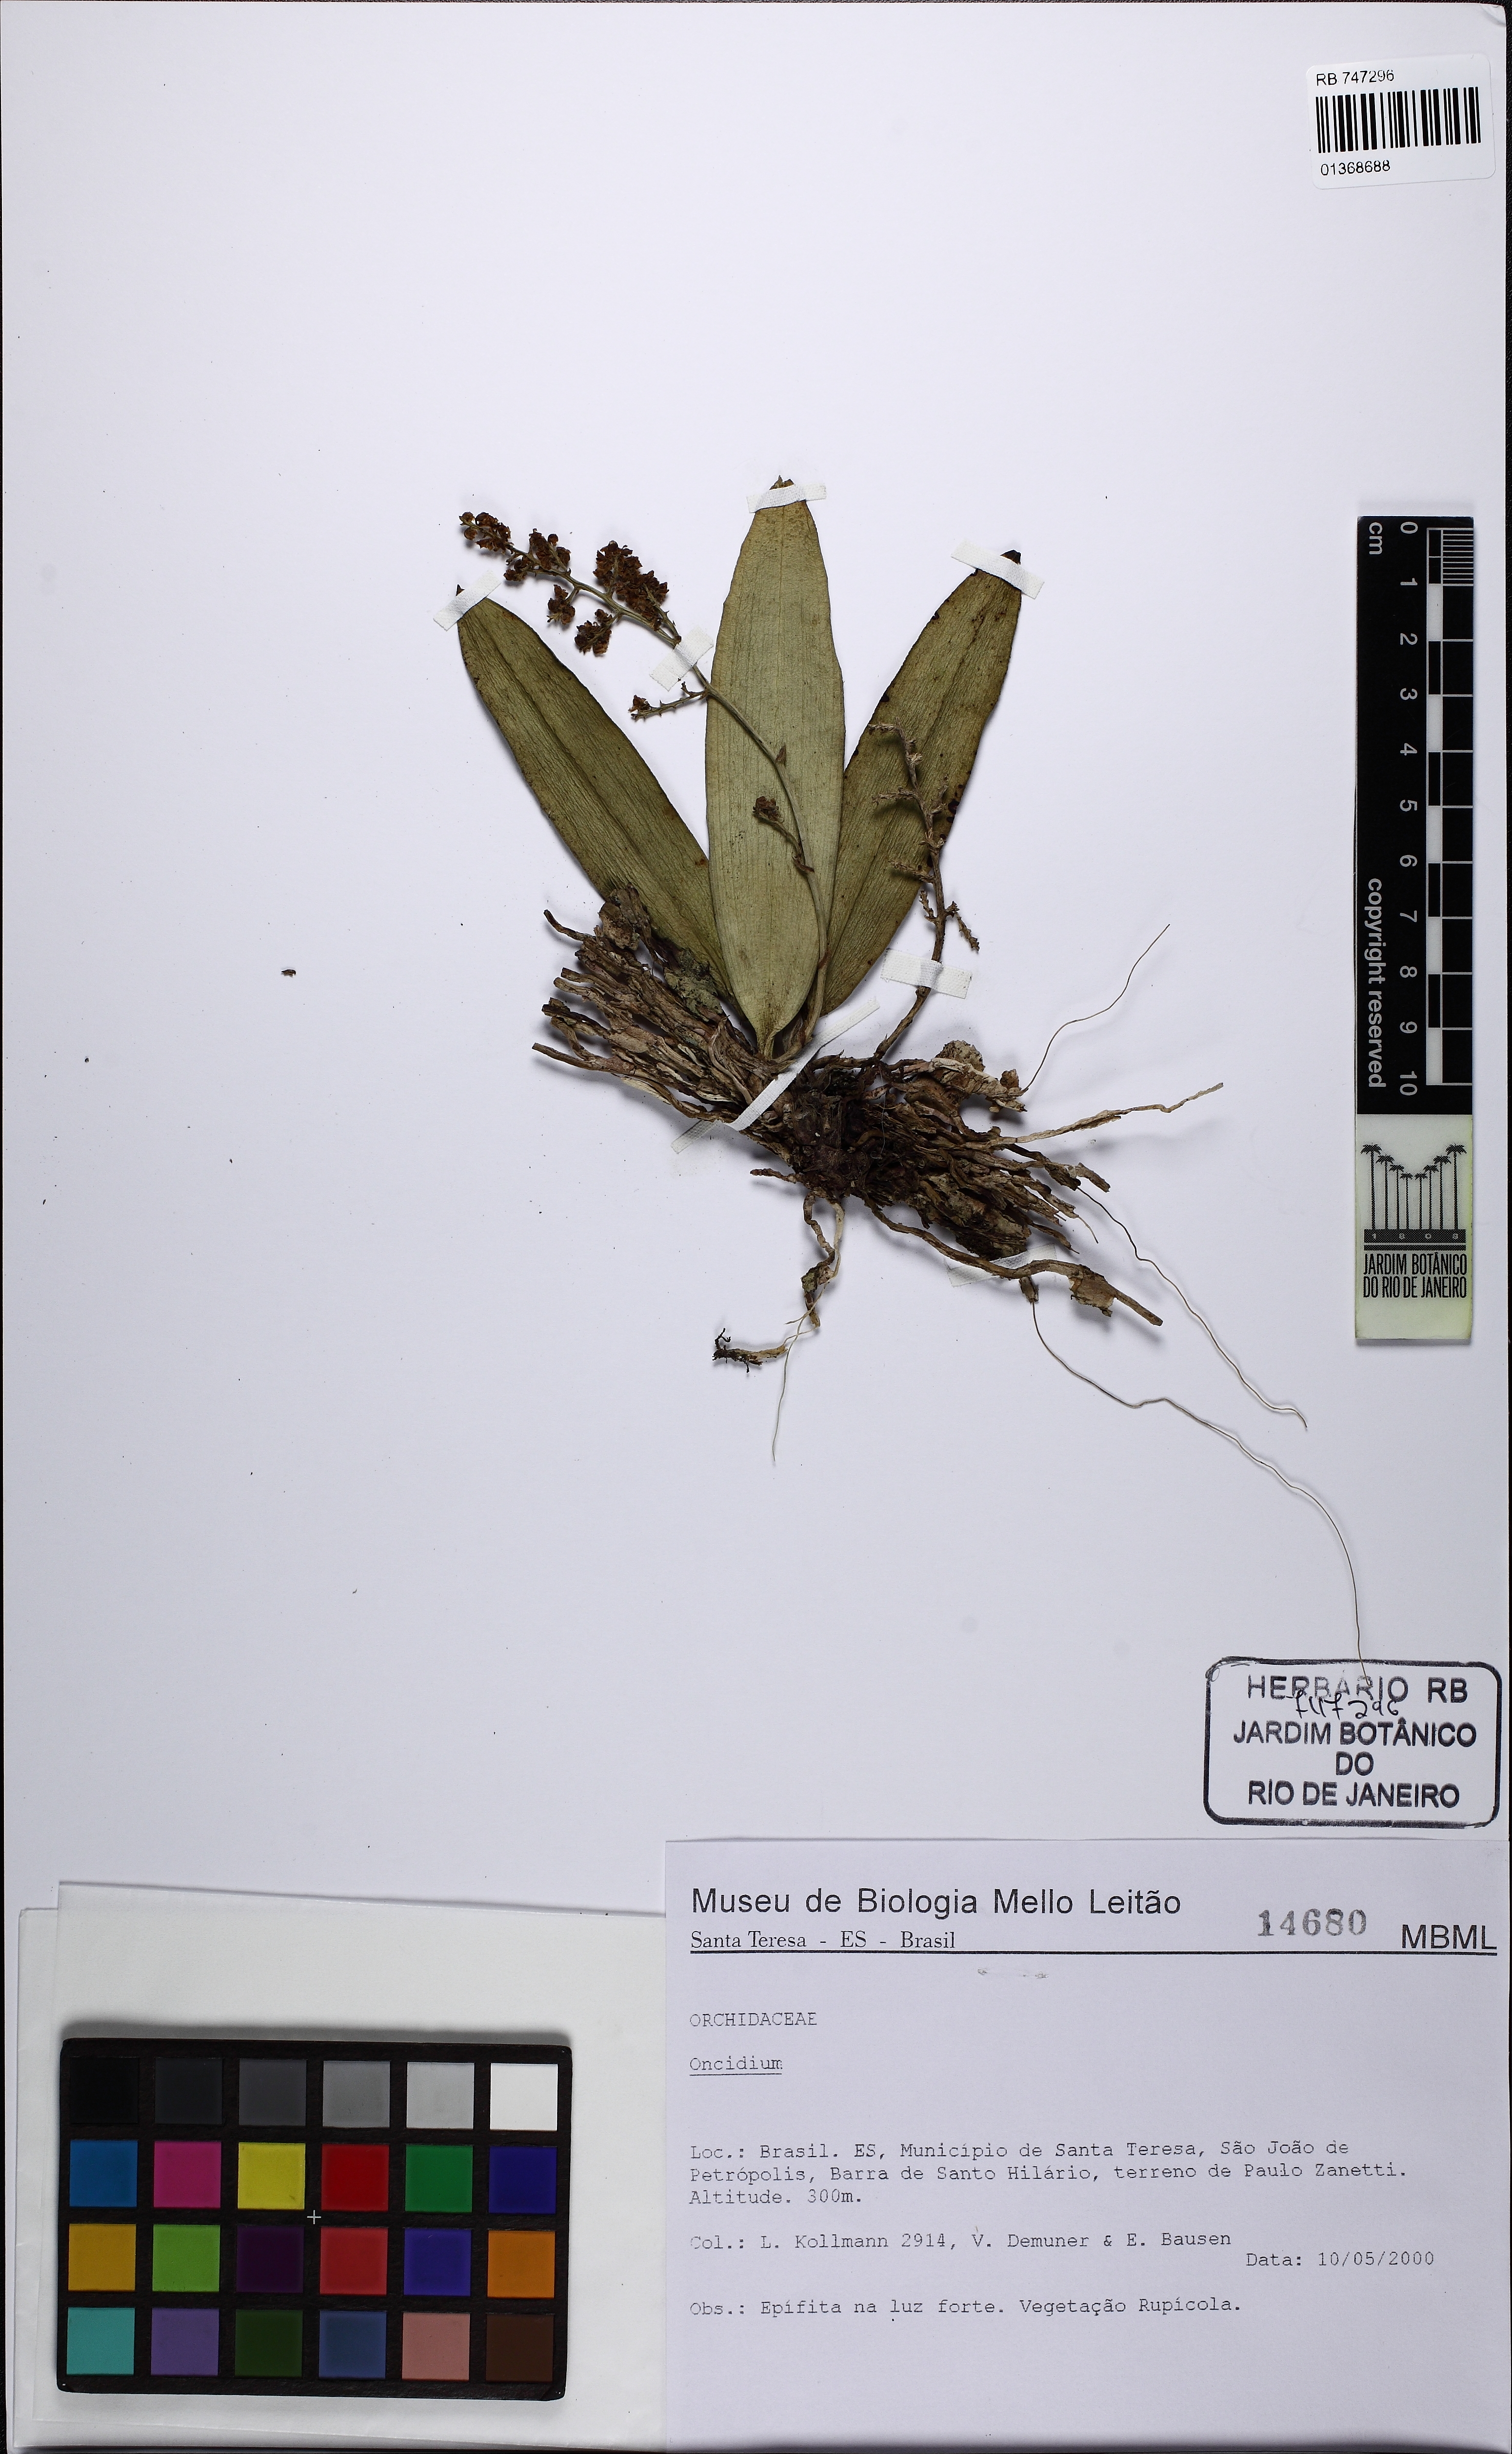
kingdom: Plantae
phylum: Tracheophyta
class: Liliopsida
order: Asparagales
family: Orchidaceae
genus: Oncidium
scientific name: Oncidium
